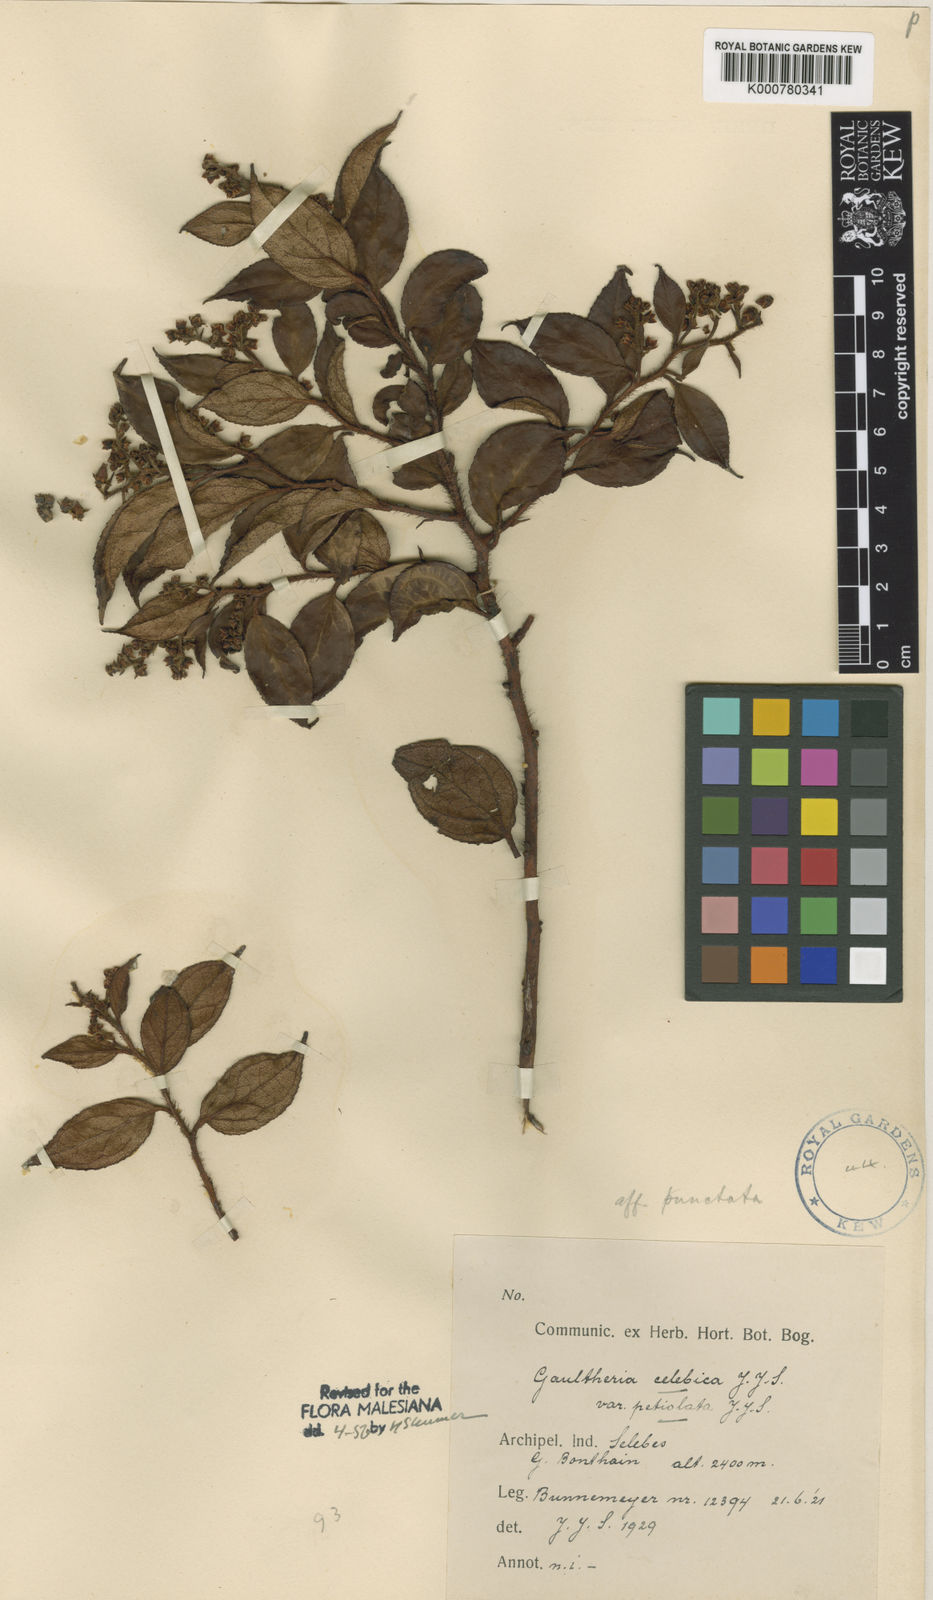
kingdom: Plantae
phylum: Tracheophyta
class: Magnoliopsida
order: Ericales
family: Ericaceae
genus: Gaultheria
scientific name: Gaultheria celebica
